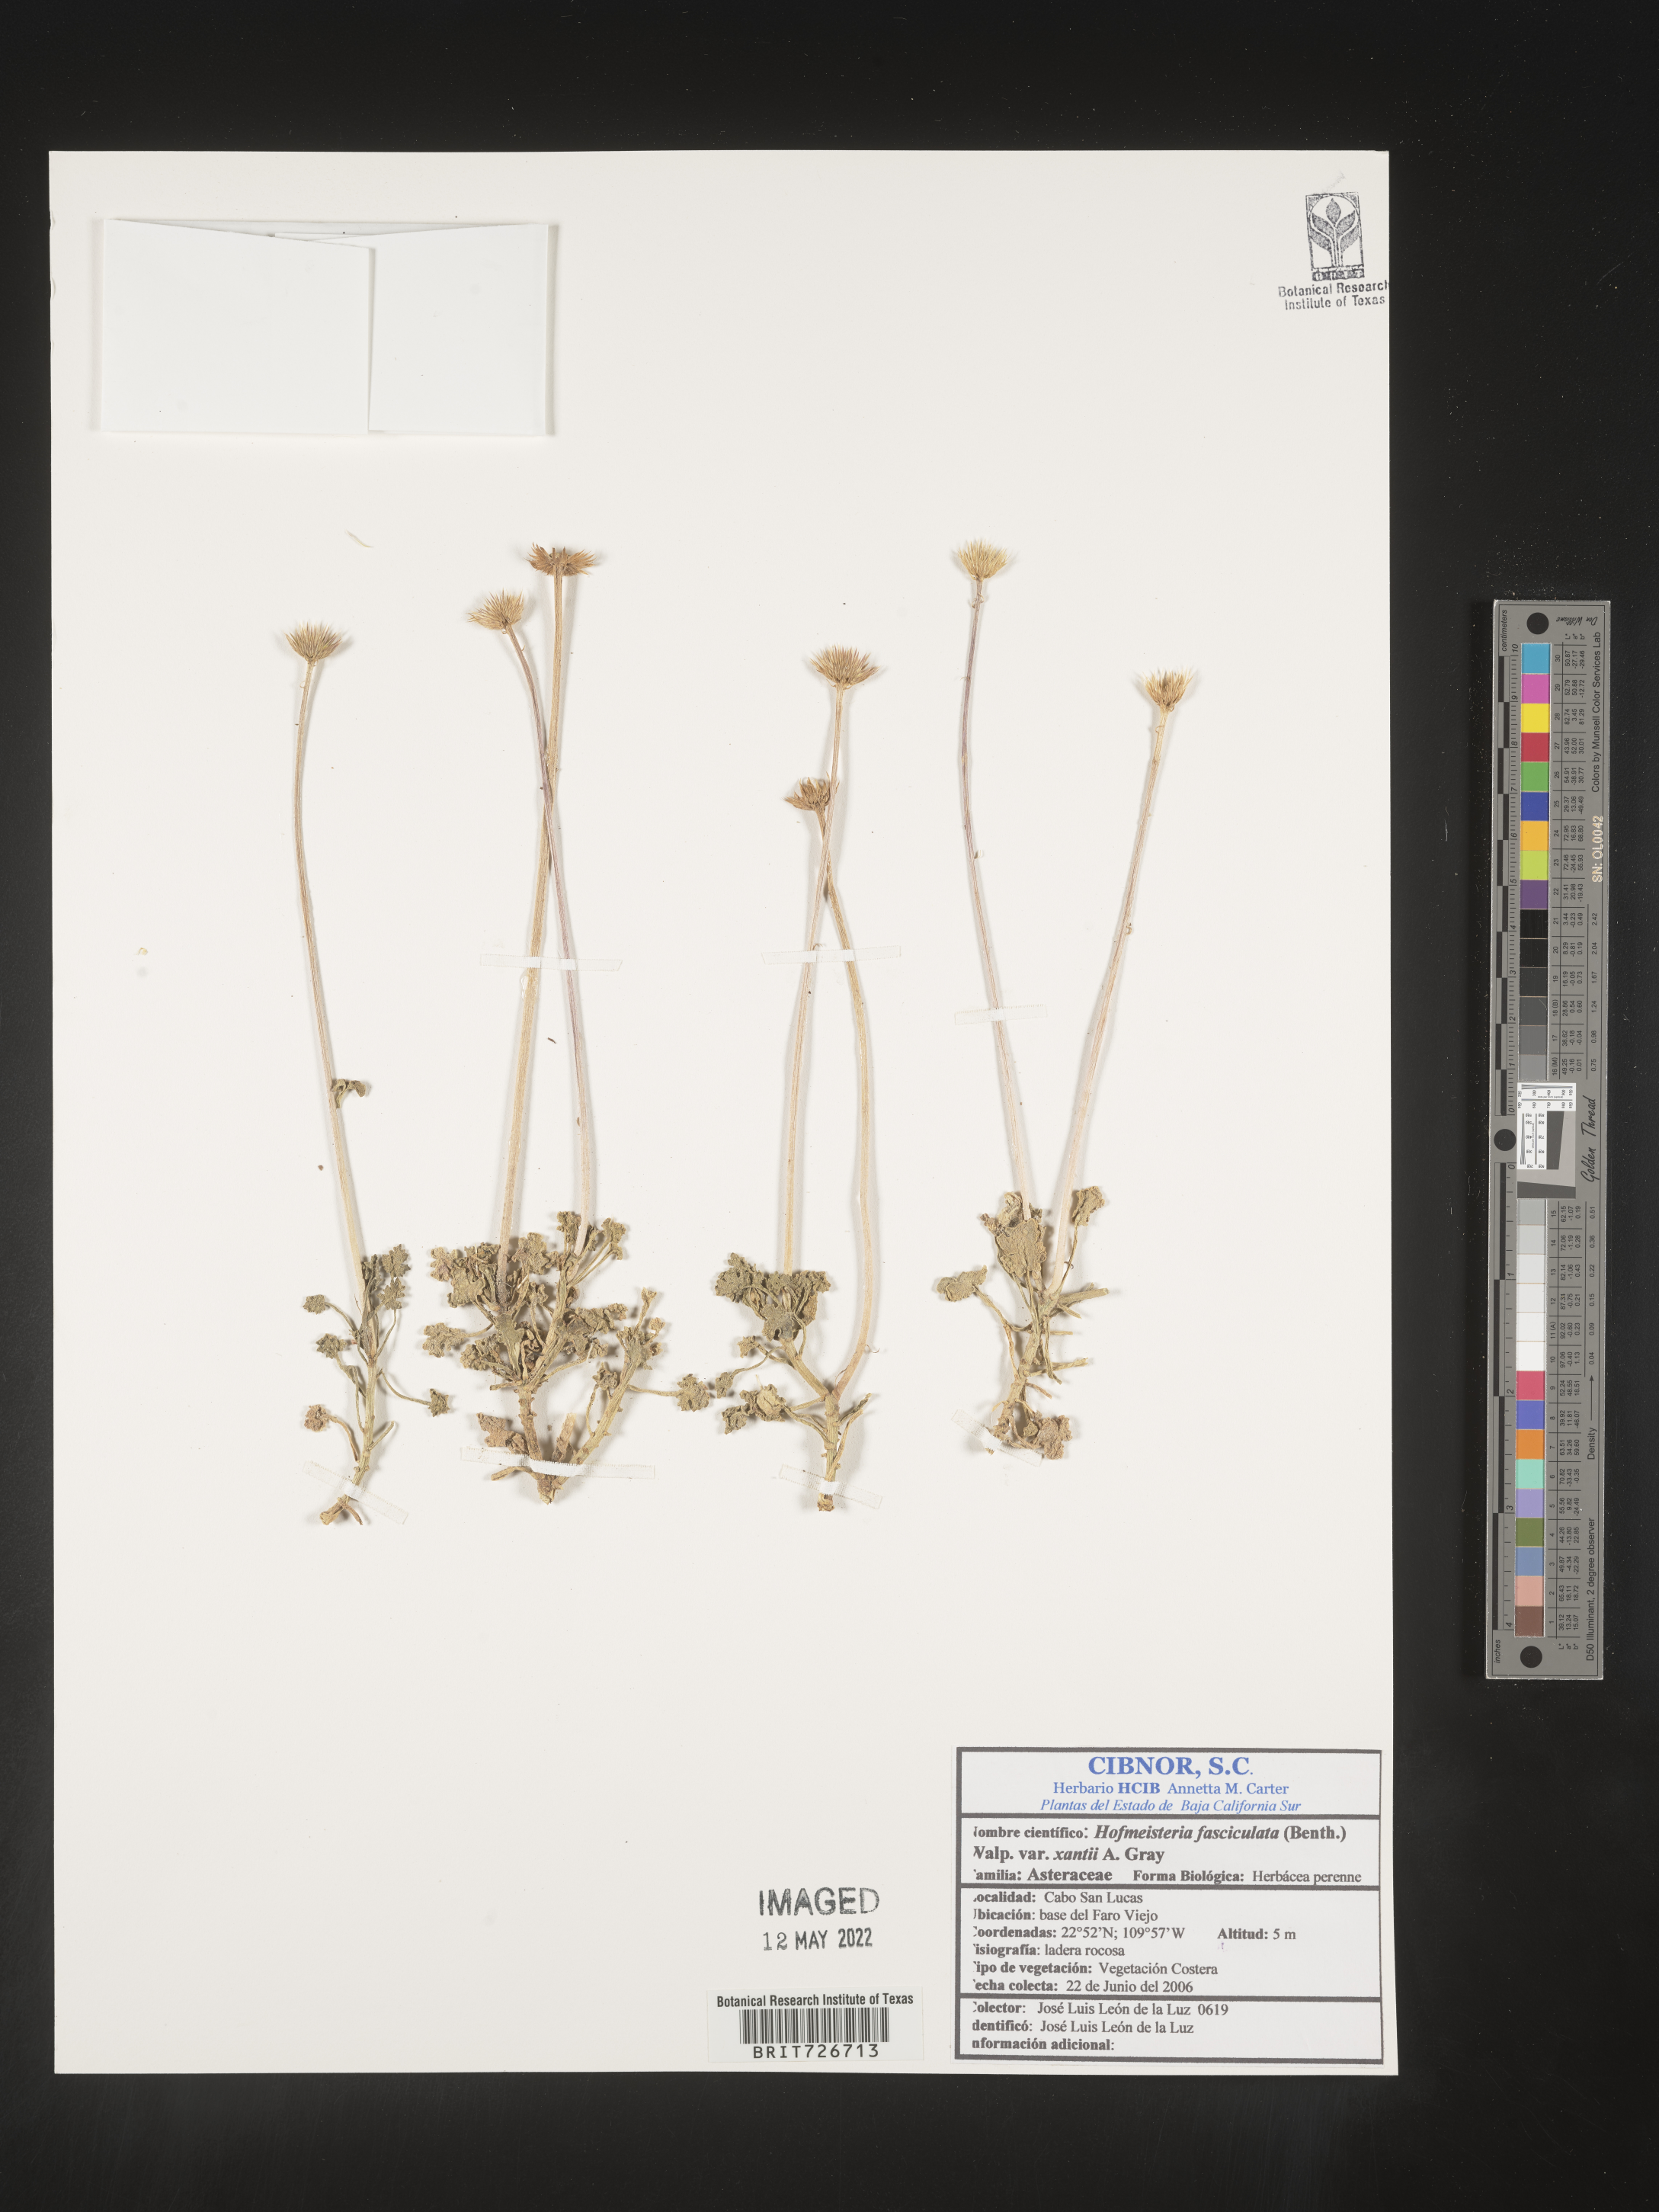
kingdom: Plantae
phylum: Tracheophyta
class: Magnoliopsida
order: Asterales
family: Asteraceae
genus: Hofmeisteria
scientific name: Hofmeisteria
